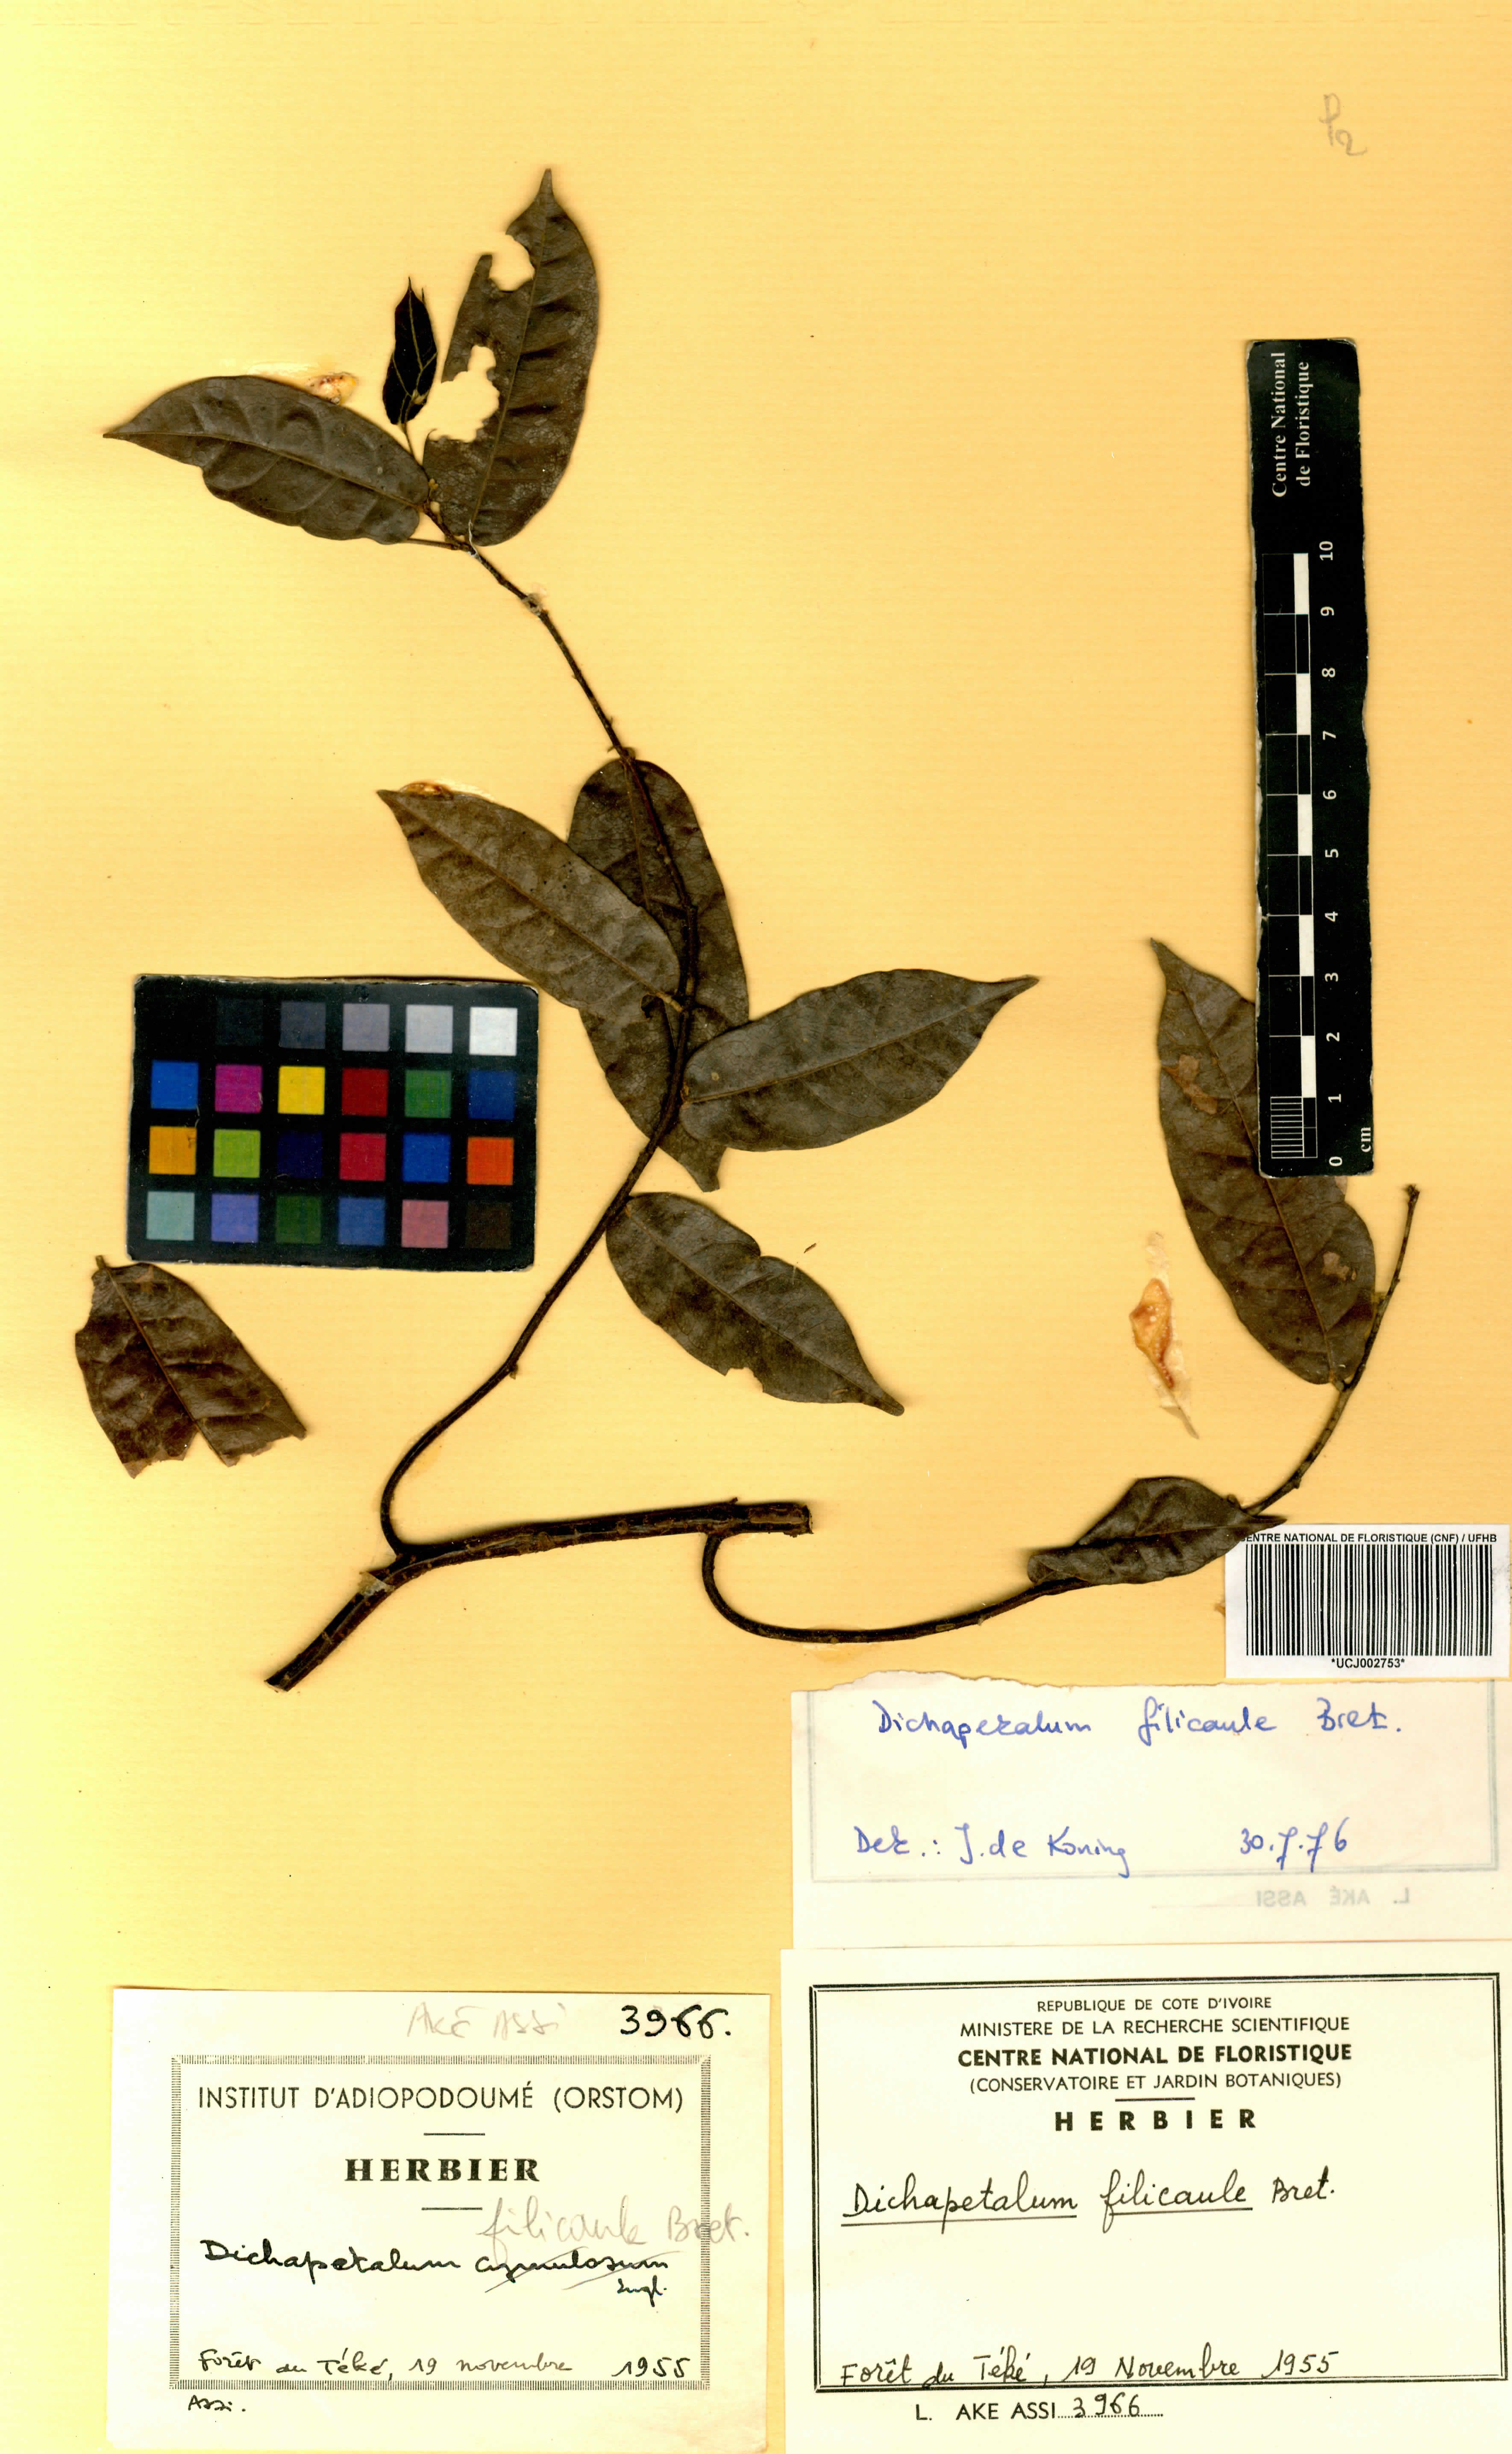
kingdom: Plantae
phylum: Tracheophyta
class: Magnoliopsida
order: Malpighiales
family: Dichapetalaceae
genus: Dichapetalum
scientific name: Dichapetalum filicaule
